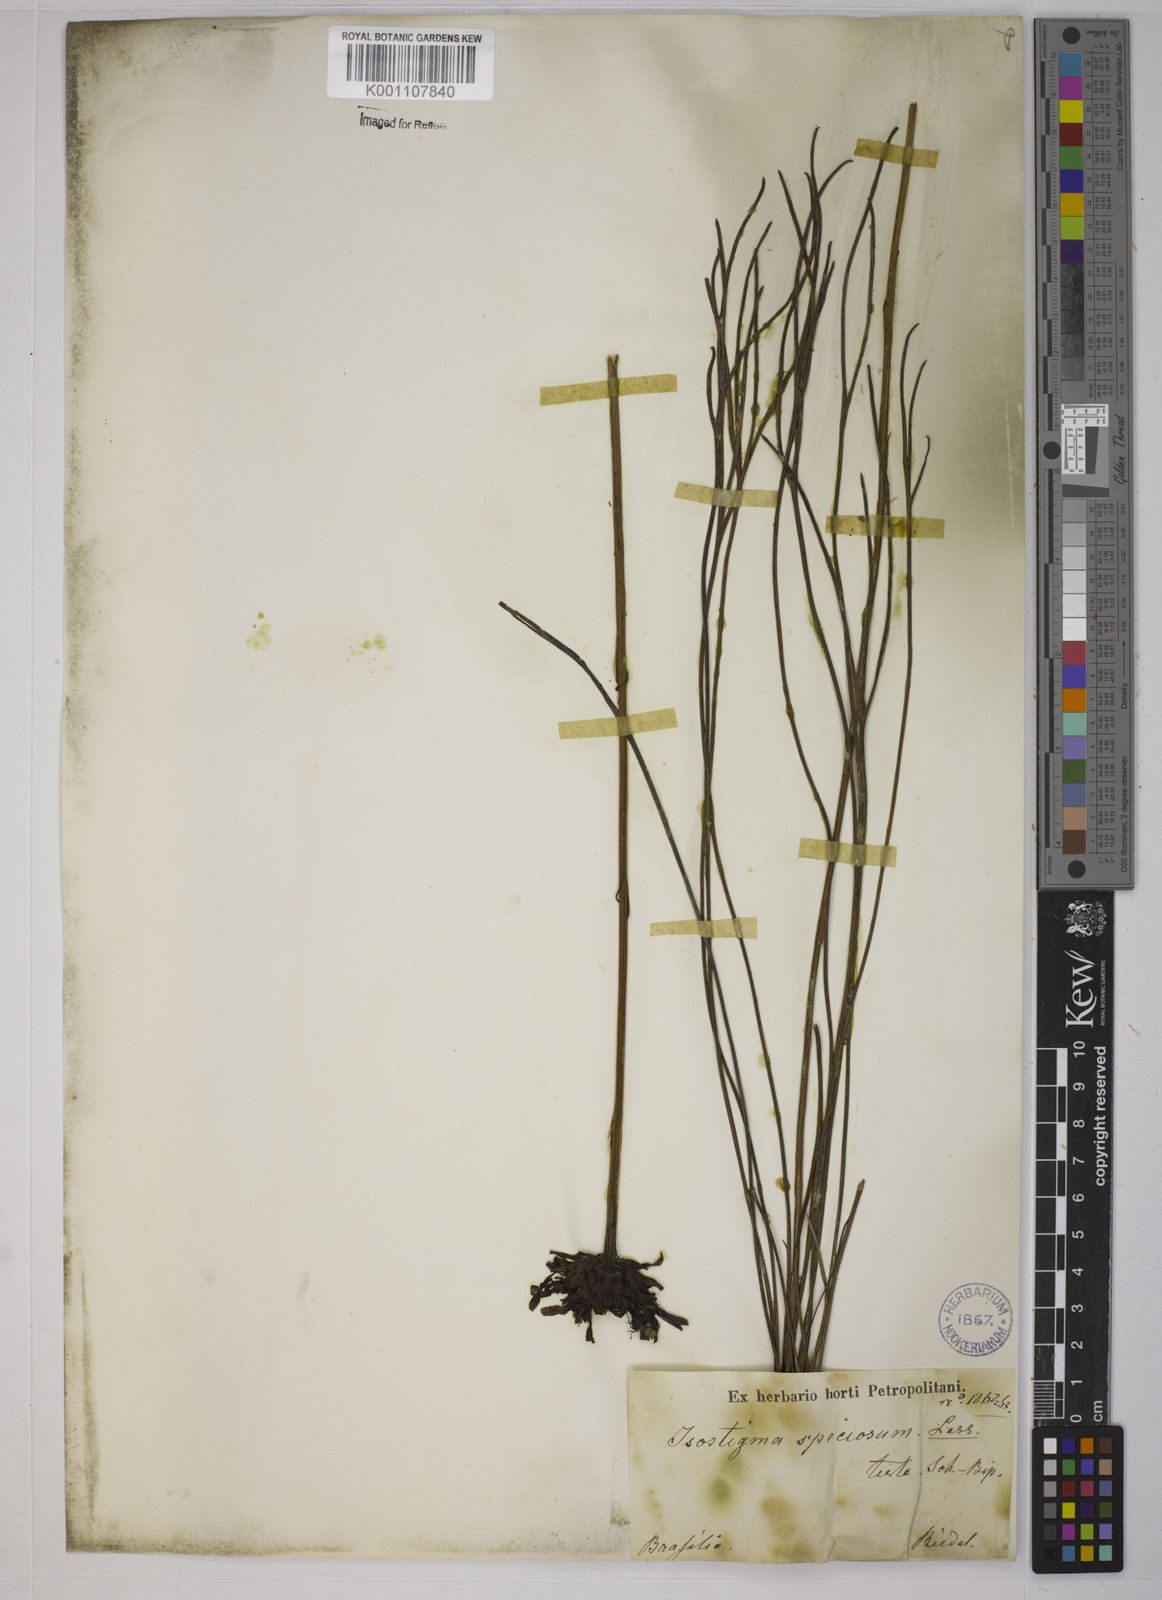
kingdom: Plantae
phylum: Tracheophyta
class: Magnoliopsida
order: Asterales
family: Asteraceae
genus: Isostigma
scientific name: Isostigma peucedanifolium
